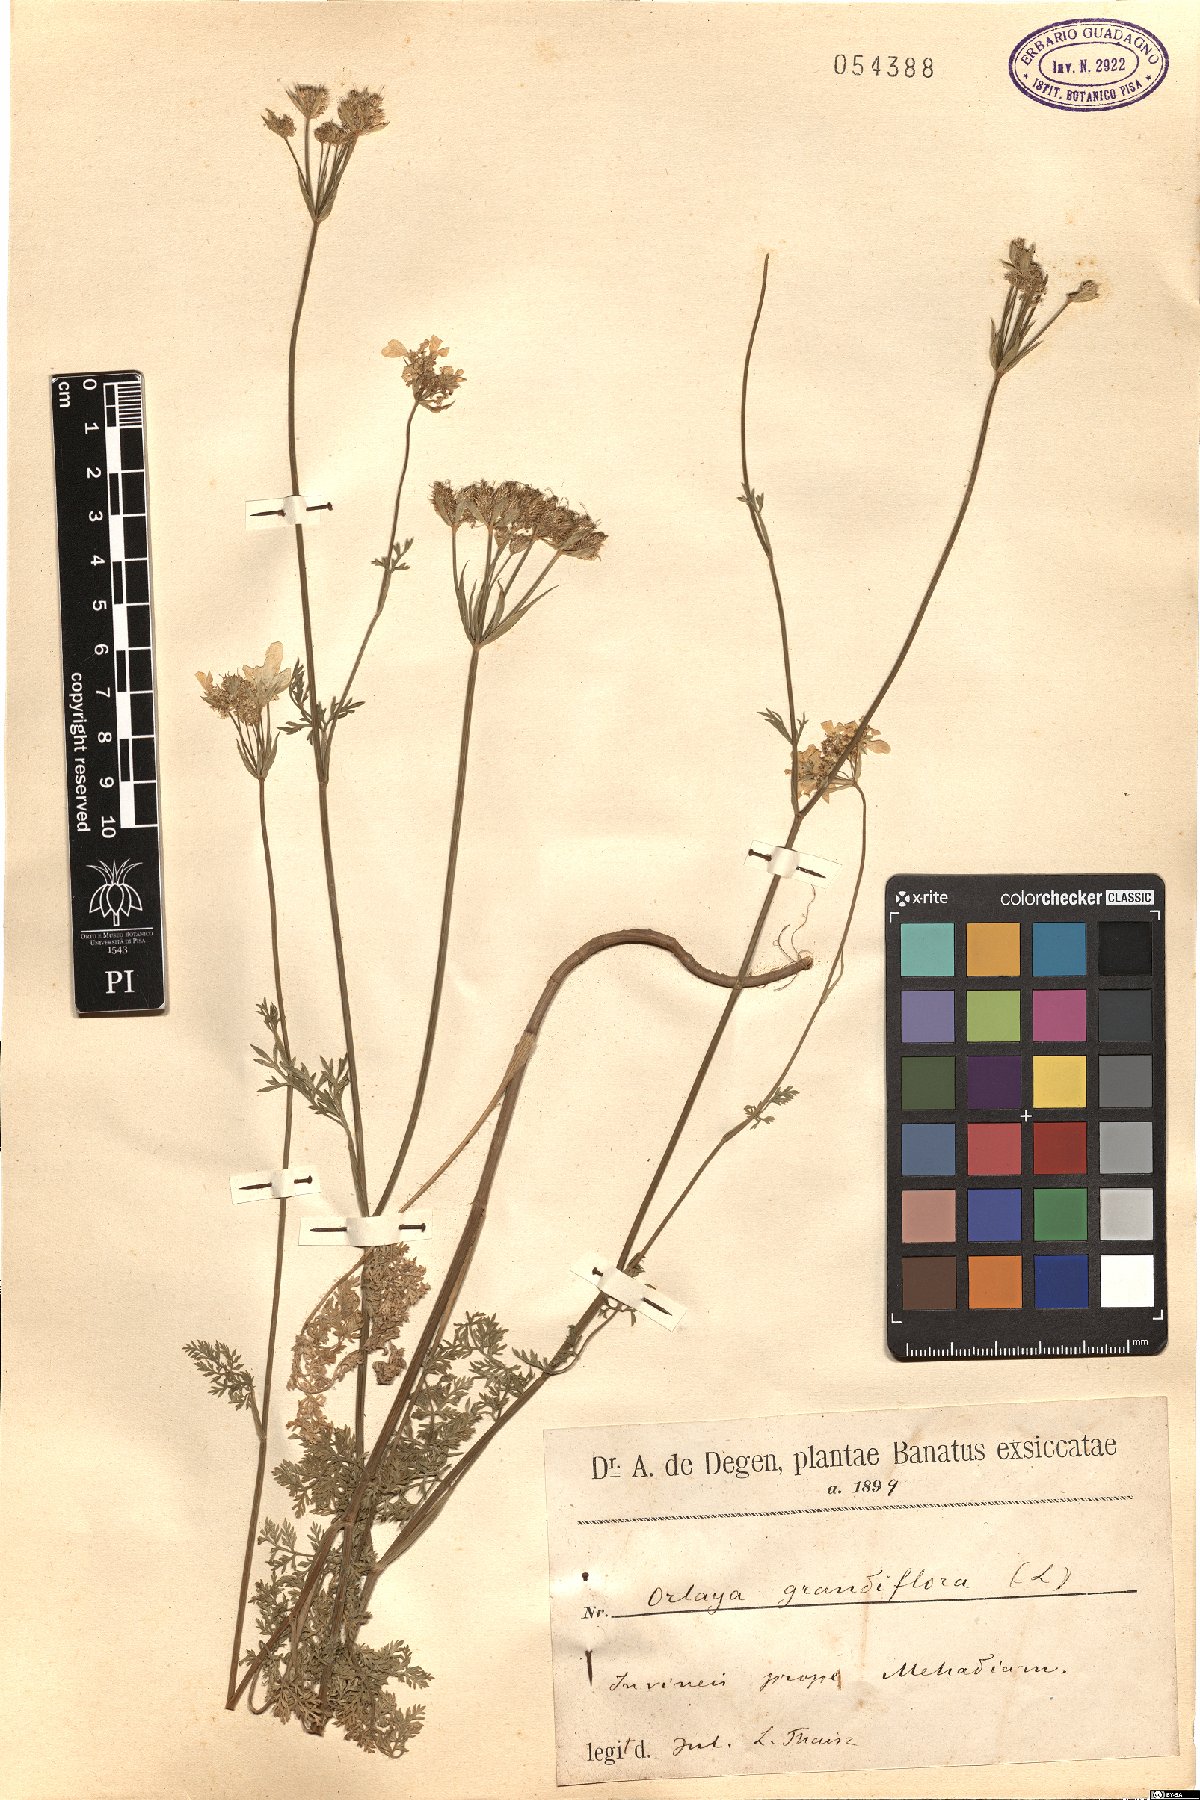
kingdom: Plantae
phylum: Tracheophyta
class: Magnoliopsida
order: Apiales
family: Apiaceae
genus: Orlaya
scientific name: Orlaya grandiflora
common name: White lace flower
